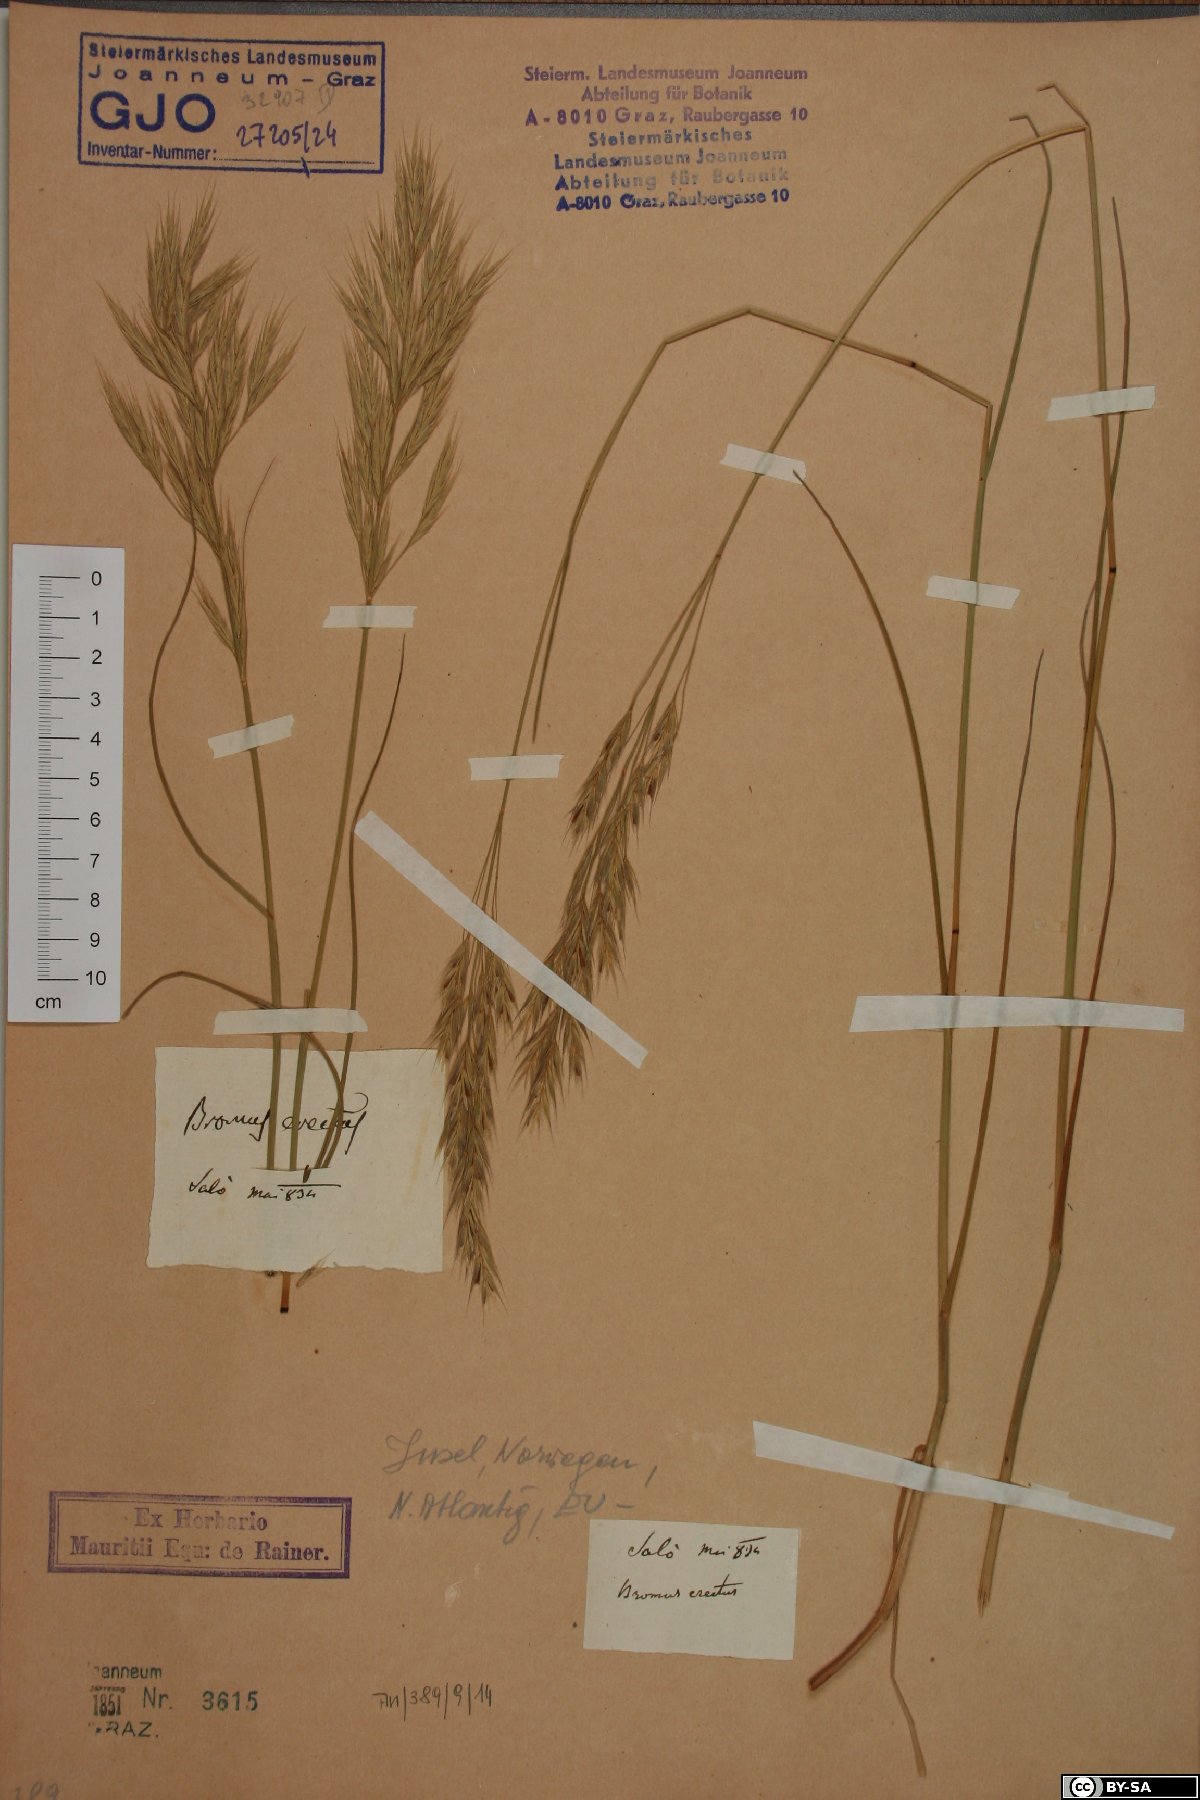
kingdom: Plantae
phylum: Tracheophyta
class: Liliopsida
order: Poales
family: Poaceae
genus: Bromus
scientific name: Bromus erectus
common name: Erect brome
